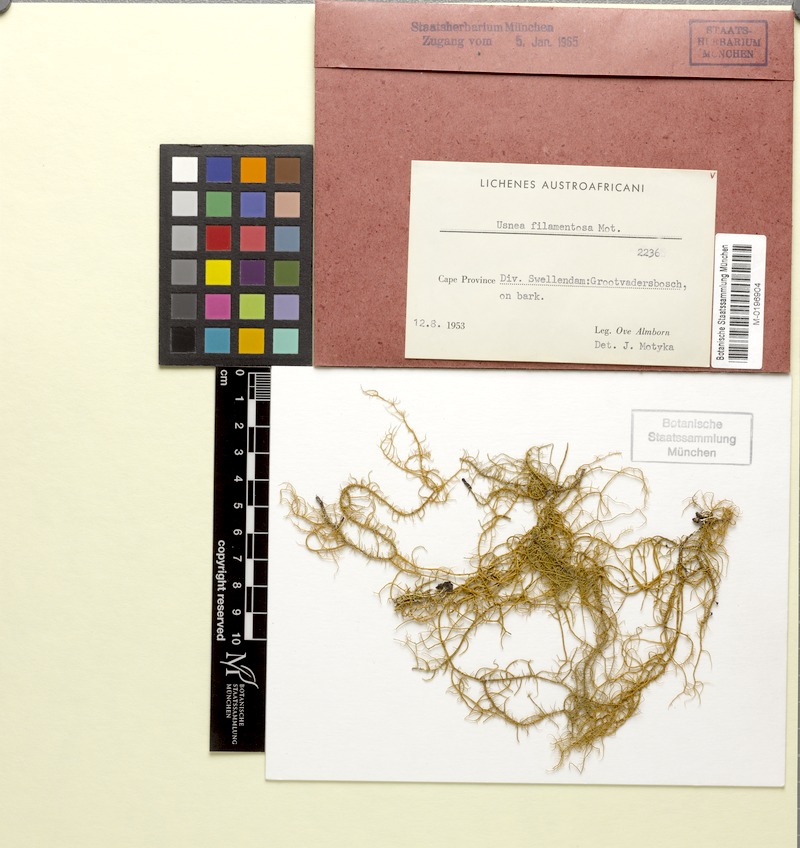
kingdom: Fungi
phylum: Ascomycota
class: Lecanoromycetes
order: Lecanorales
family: Parmeliaceae
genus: Usnea
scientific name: Usnea filamentosa
